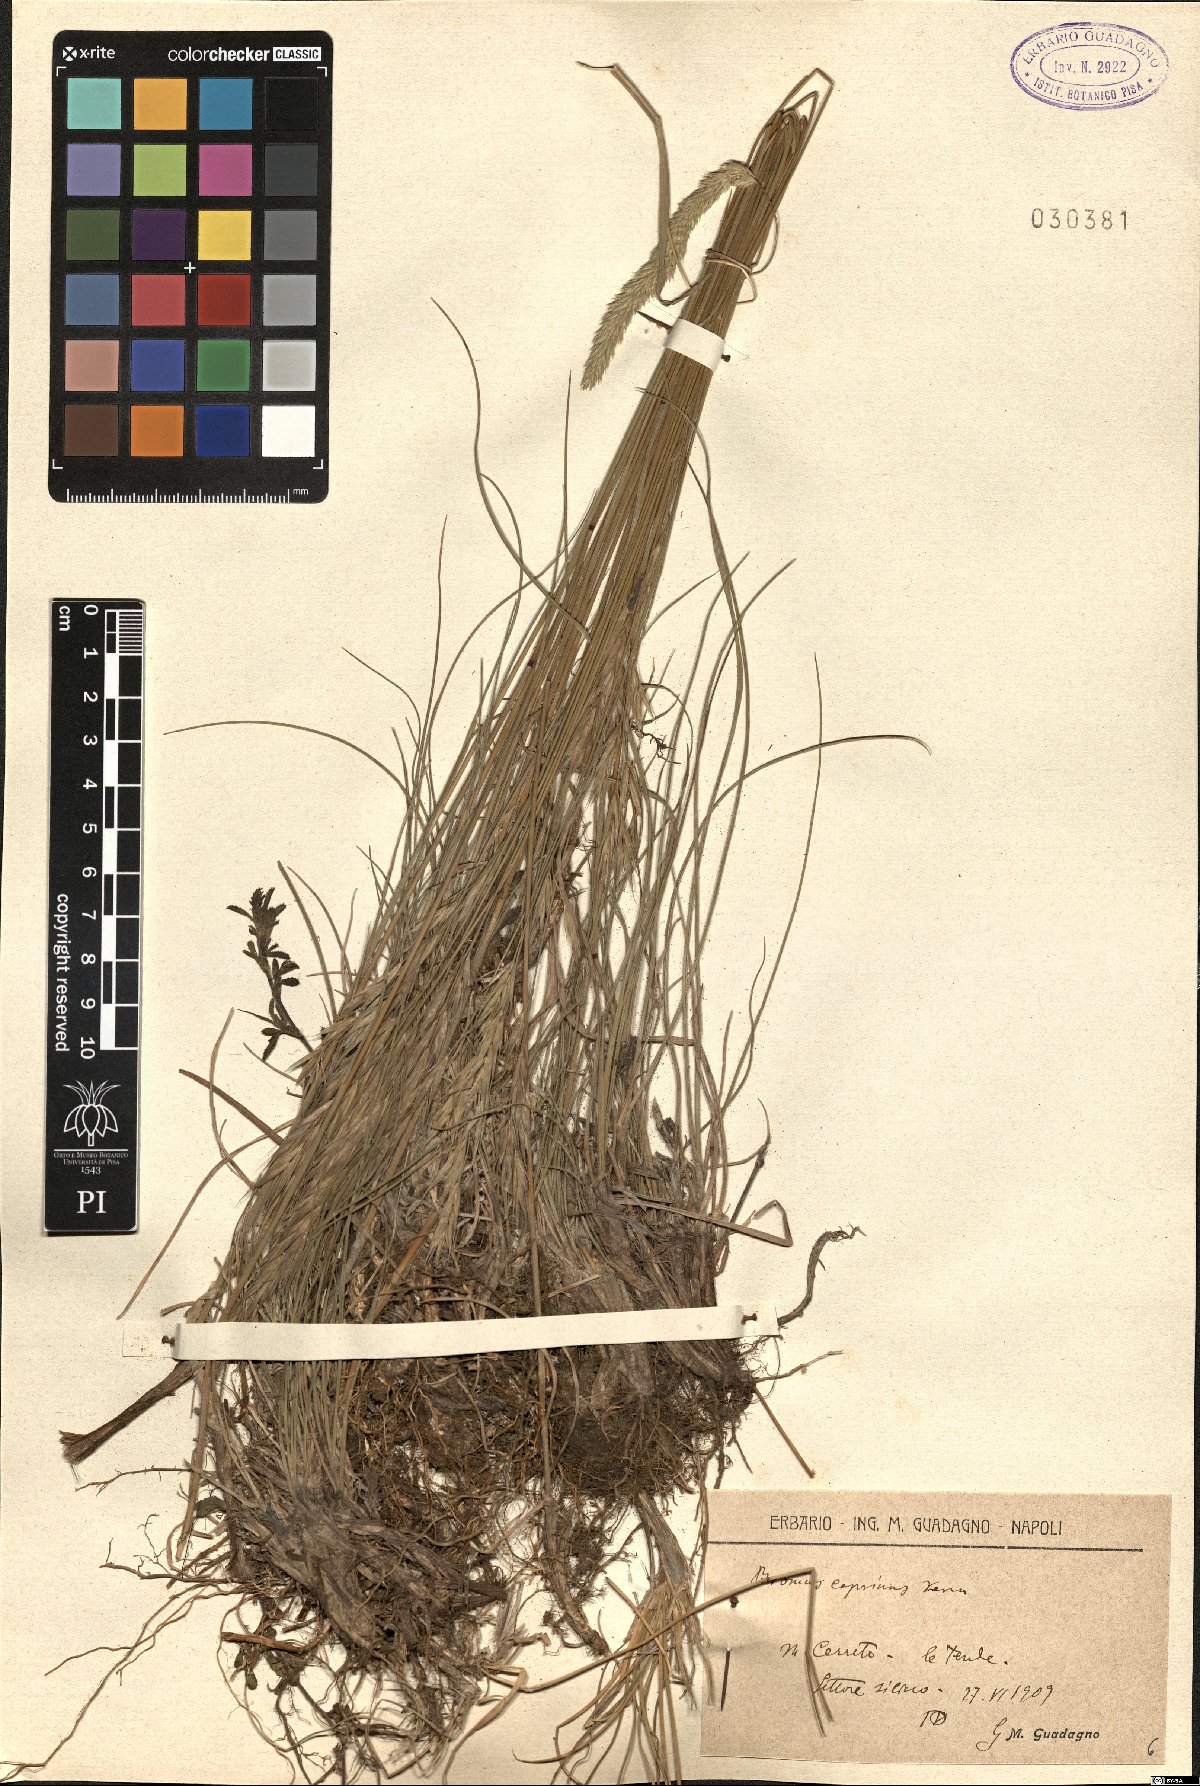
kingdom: Plantae
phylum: Tracheophyta
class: Liliopsida
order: Poales
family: Poaceae
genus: Bromus
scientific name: Bromus erectus
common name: Erect brome
